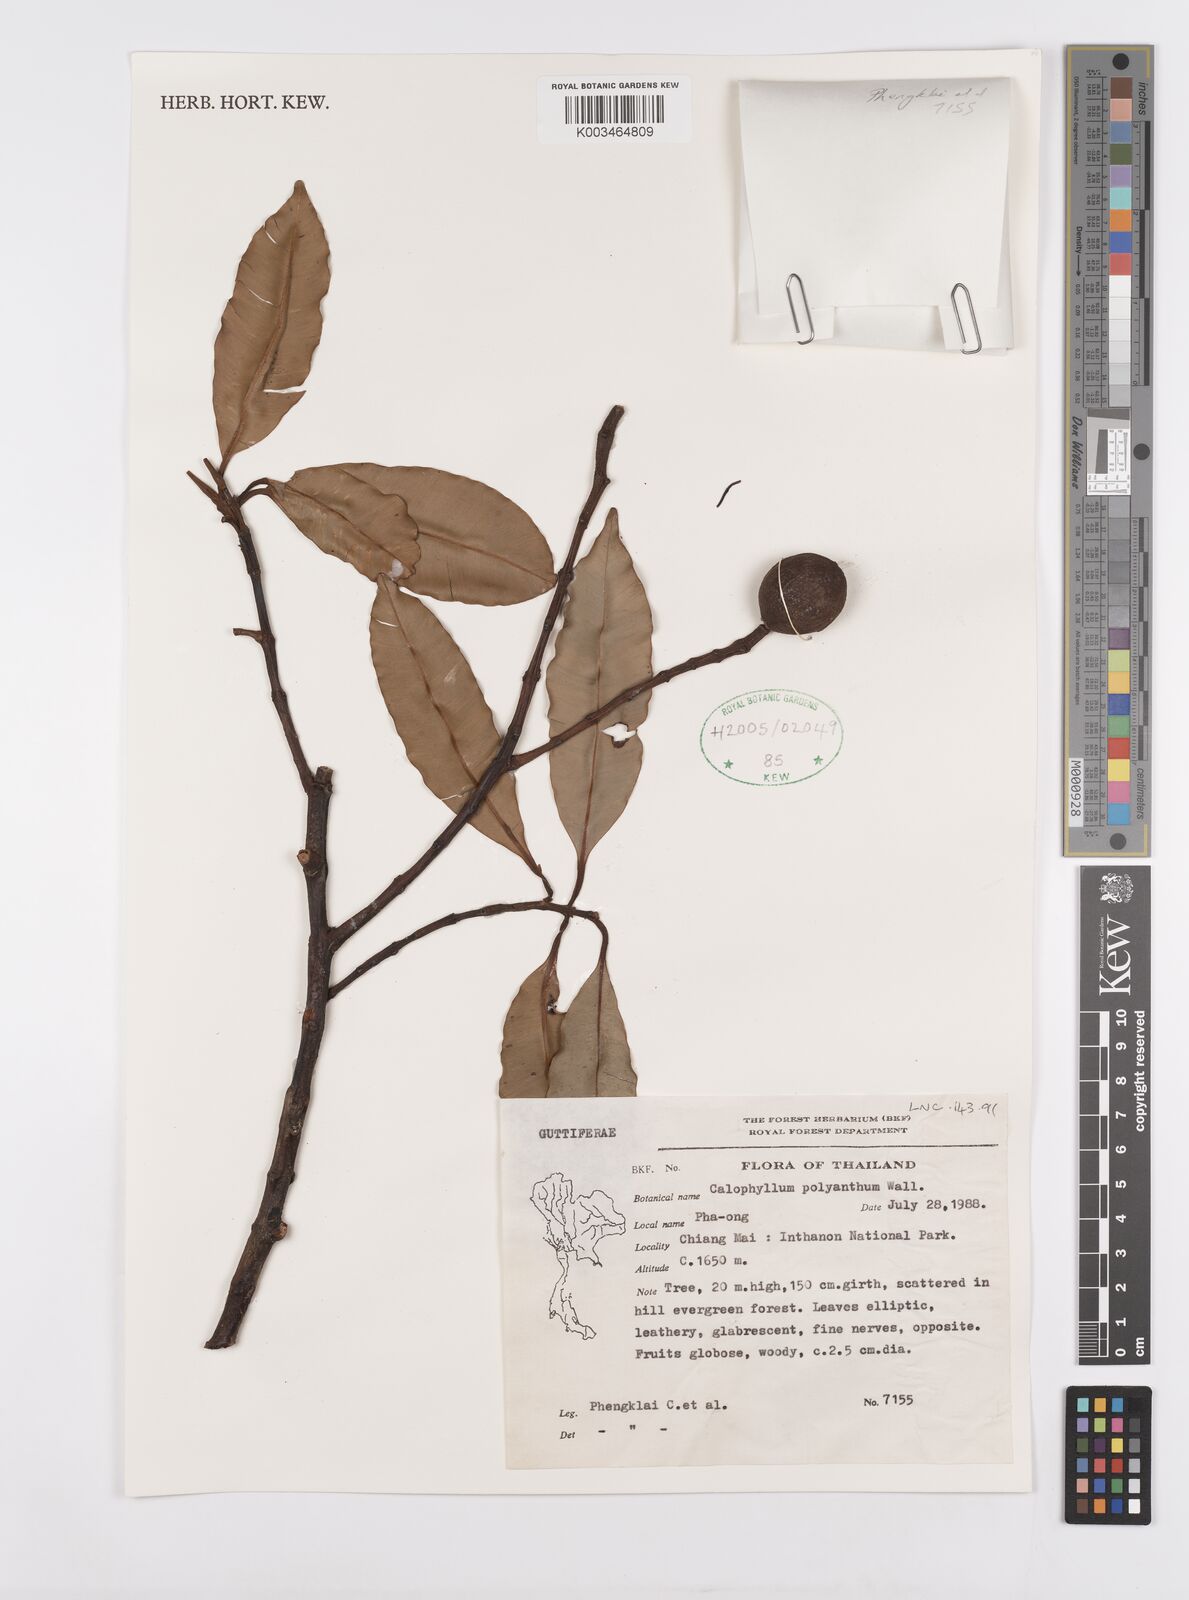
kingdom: Plantae
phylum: Tracheophyta
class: Magnoliopsida
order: Malpighiales
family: Calophyllaceae
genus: Calophyllum
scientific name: Calophyllum pisiferum
